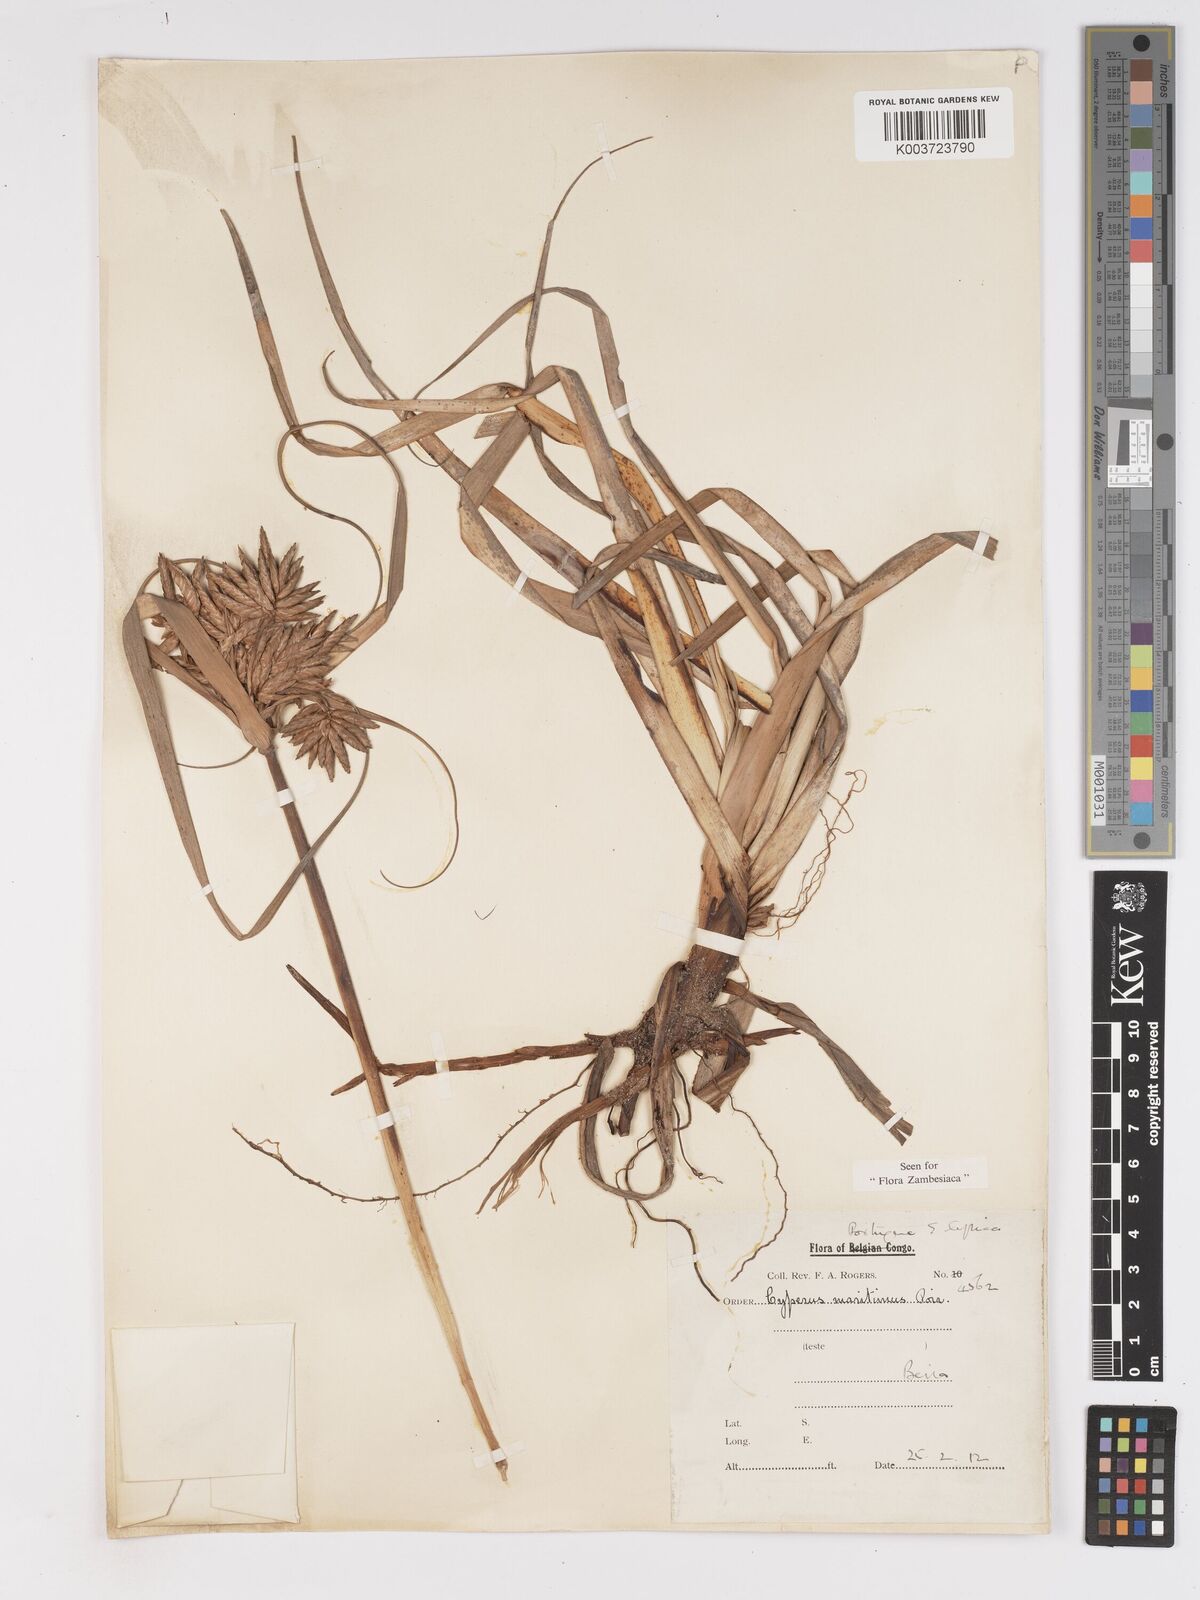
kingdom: Plantae
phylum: Tracheophyta
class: Liliopsida
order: Poales
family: Cyperaceae
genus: Cyperus
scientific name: Cyperus crassipes
